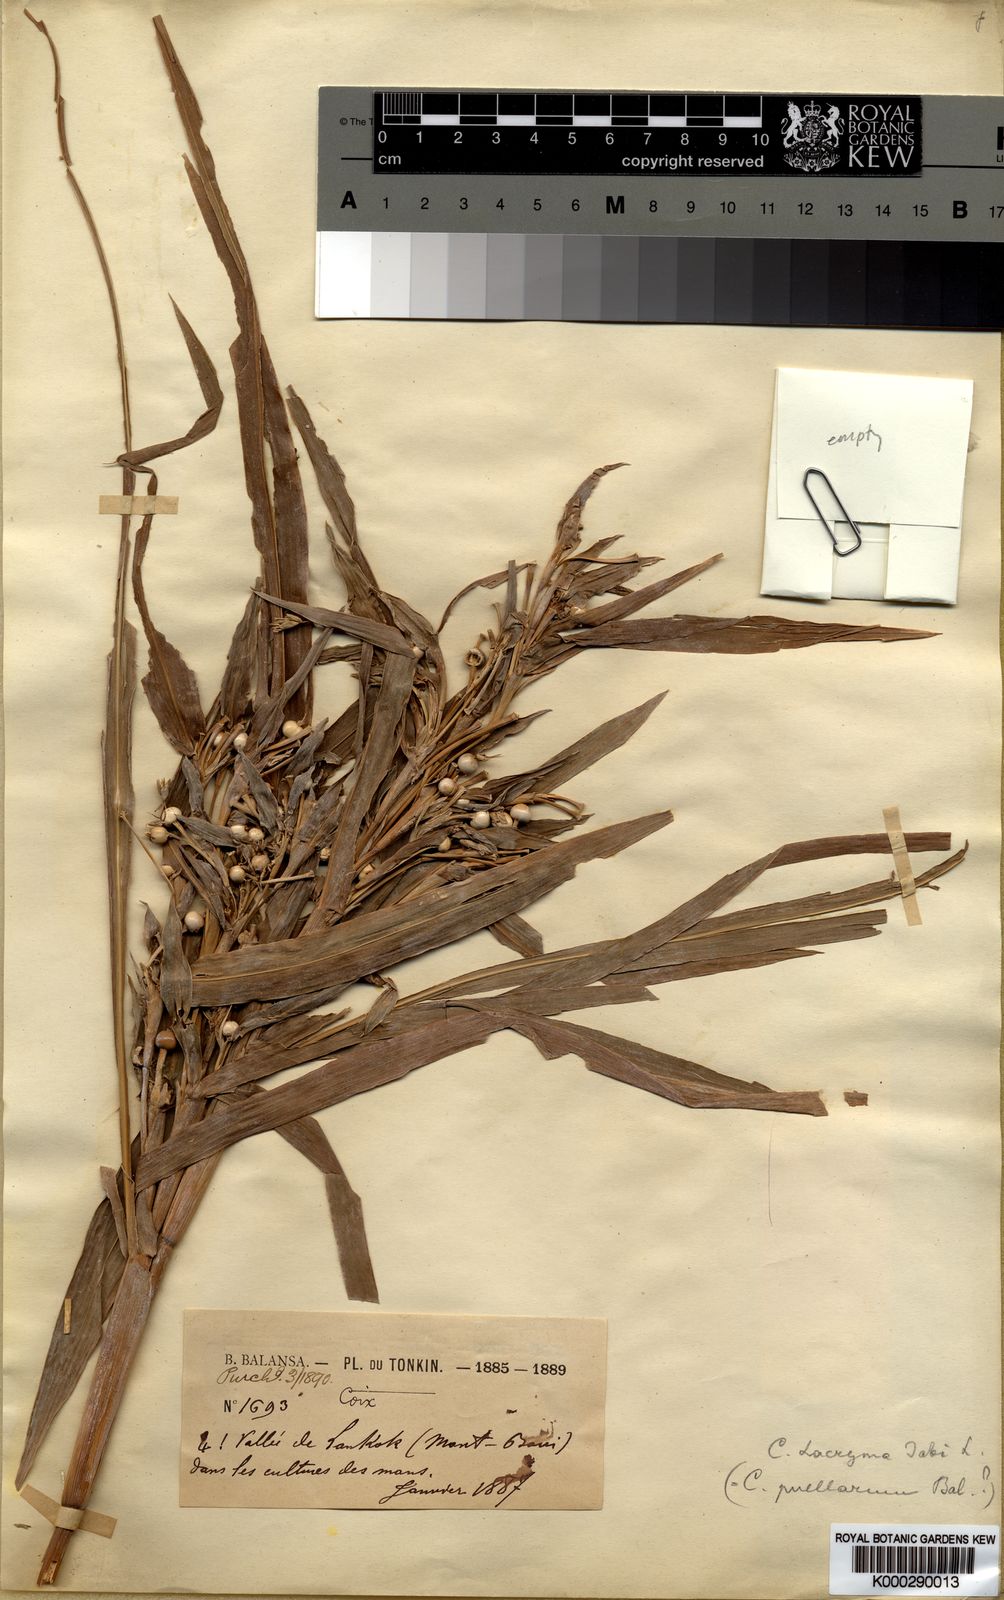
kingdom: Plantae
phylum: Tracheophyta
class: Liliopsida
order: Poales
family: Poaceae
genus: Coix
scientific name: Coix lacryma-jobi
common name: Job's tears
